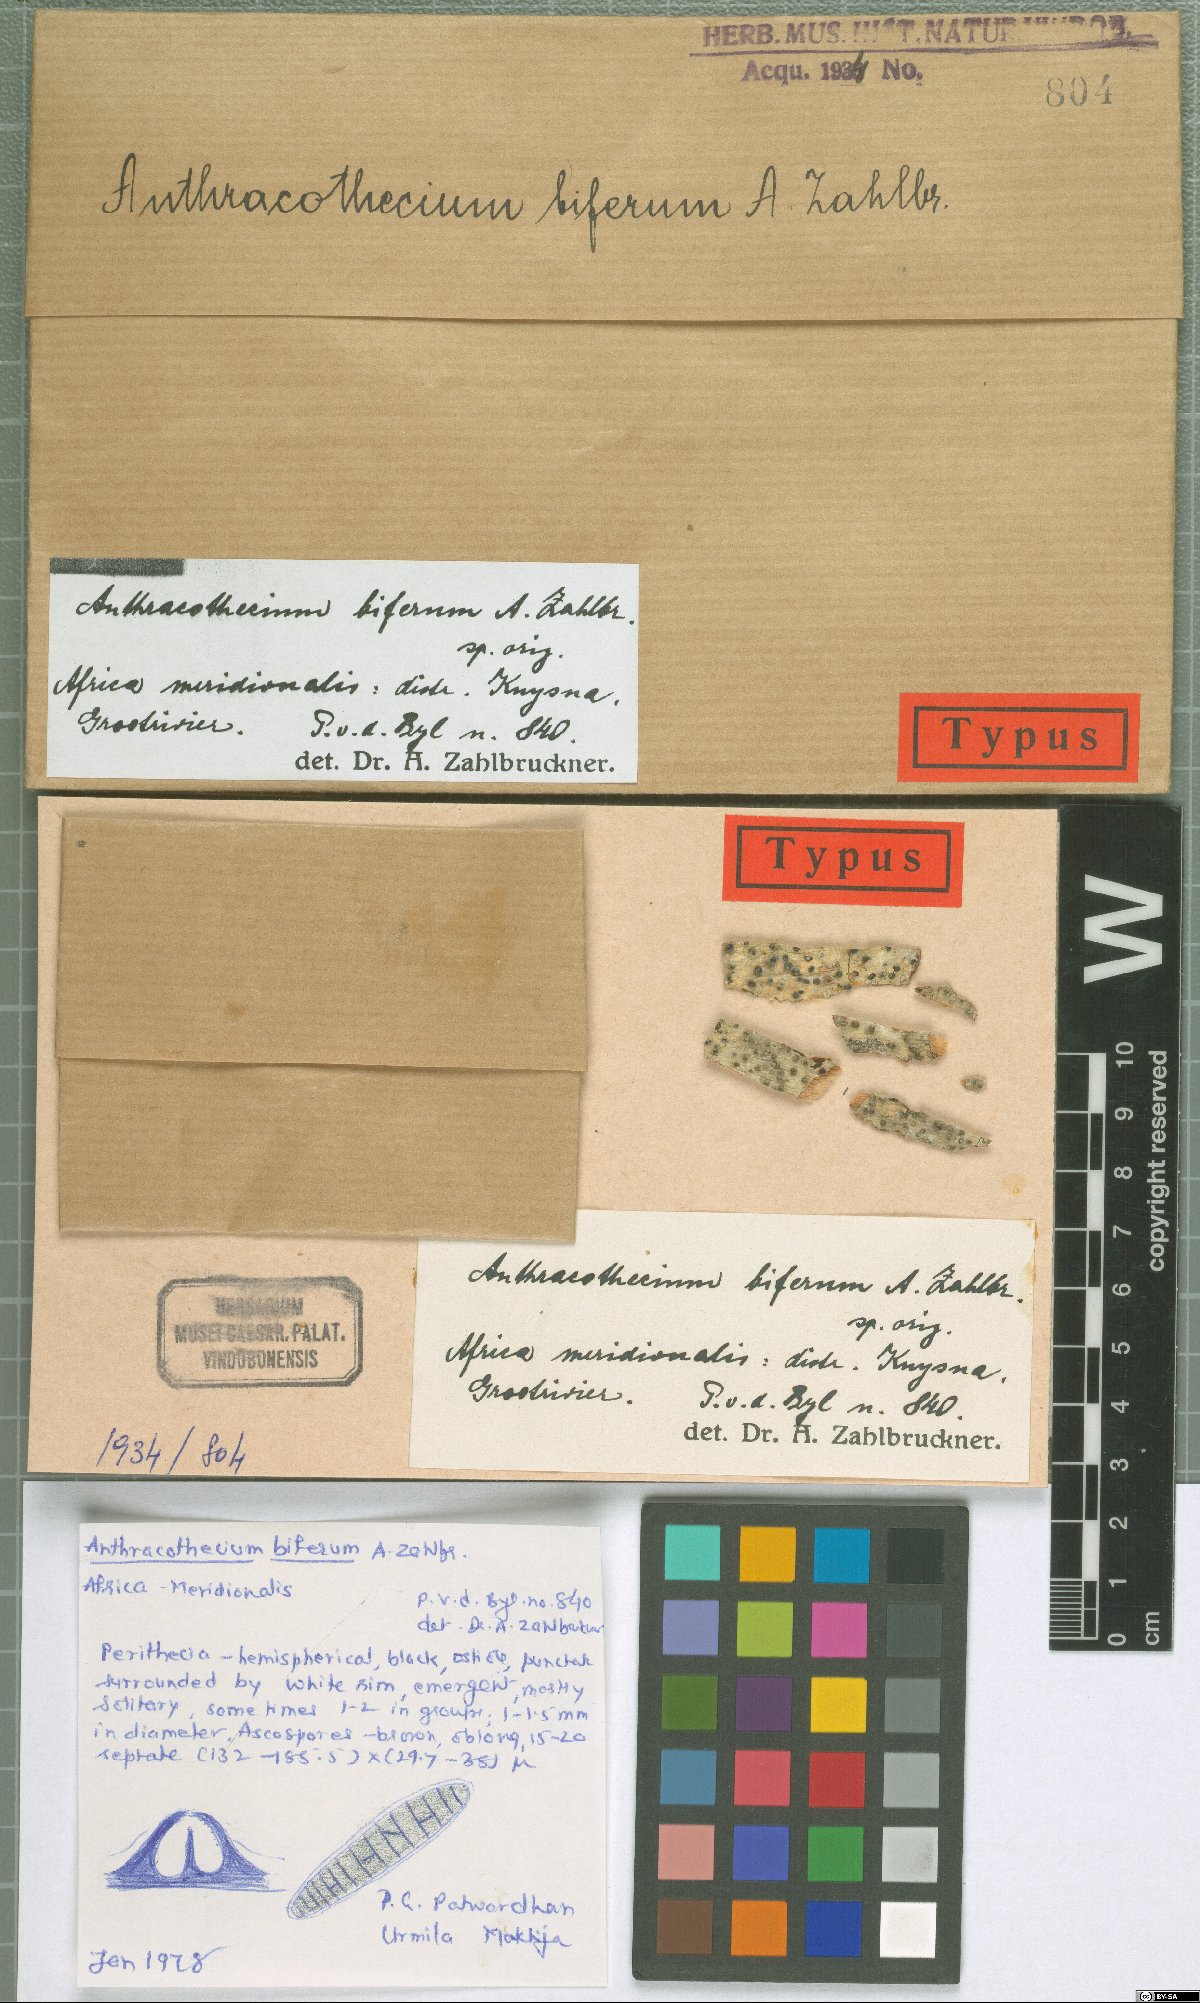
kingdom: Fungi
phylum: Ascomycota
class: Eurotiomycetes
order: Pyrenulales
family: Pyrenulaceae
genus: Anthracothecium
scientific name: Anthracothecium
